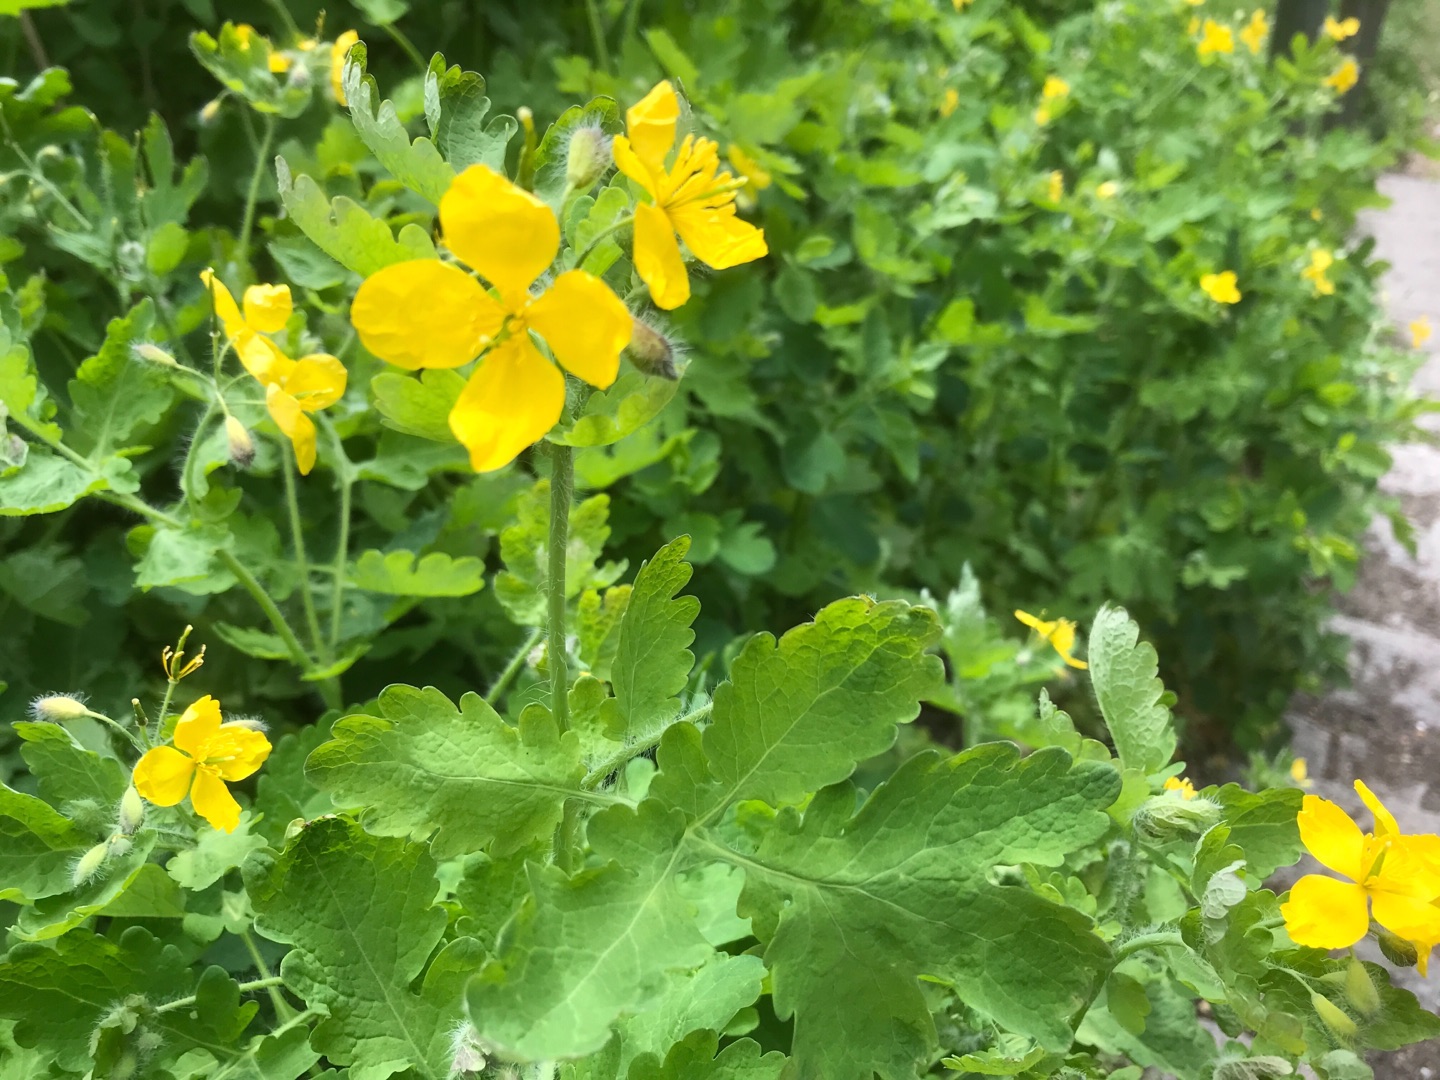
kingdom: Plantae
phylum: Tracheophyta
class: Magnoliopsida
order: Ranunculales
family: Papaveraceae
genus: Chelidonium
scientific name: Chelidonium majus
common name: Svaleurt
